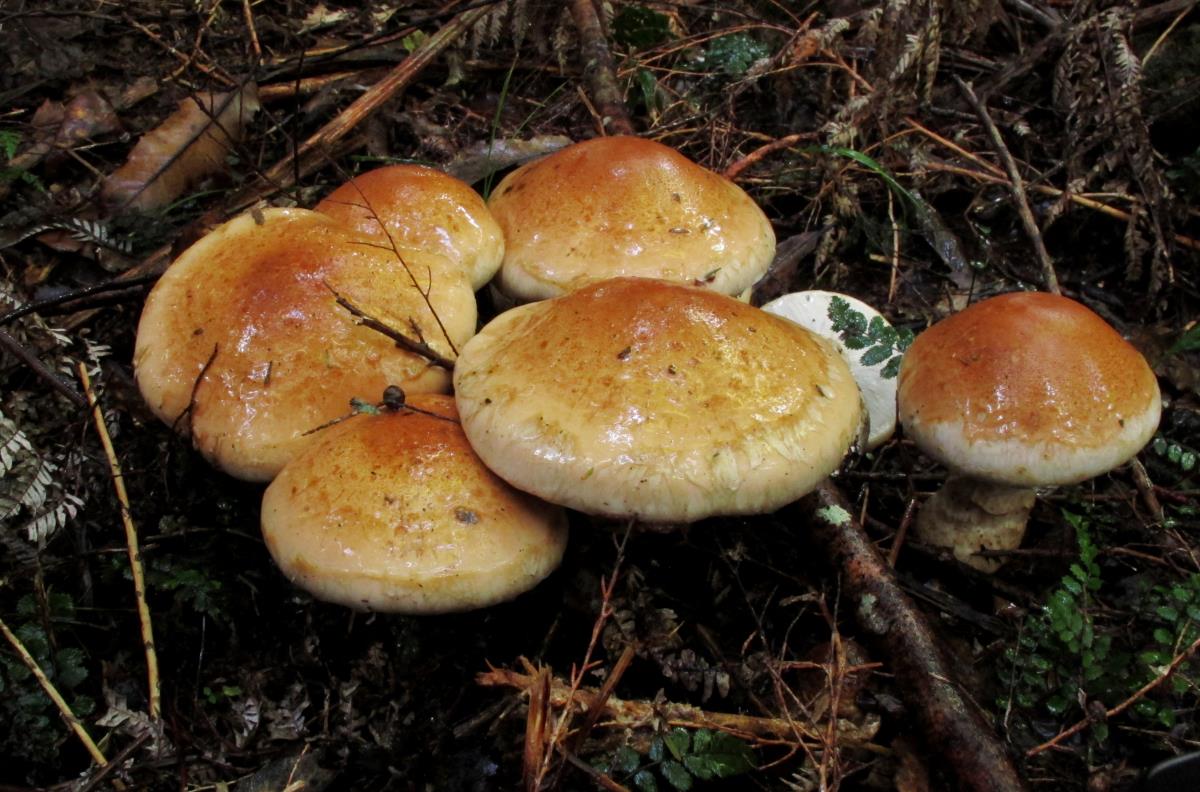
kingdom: Fungi
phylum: Basidiomycota
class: Agaricomycetes
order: Agaricales
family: Hymenogastraceae
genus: Hebeloma
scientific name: Hebeloma victoriense
